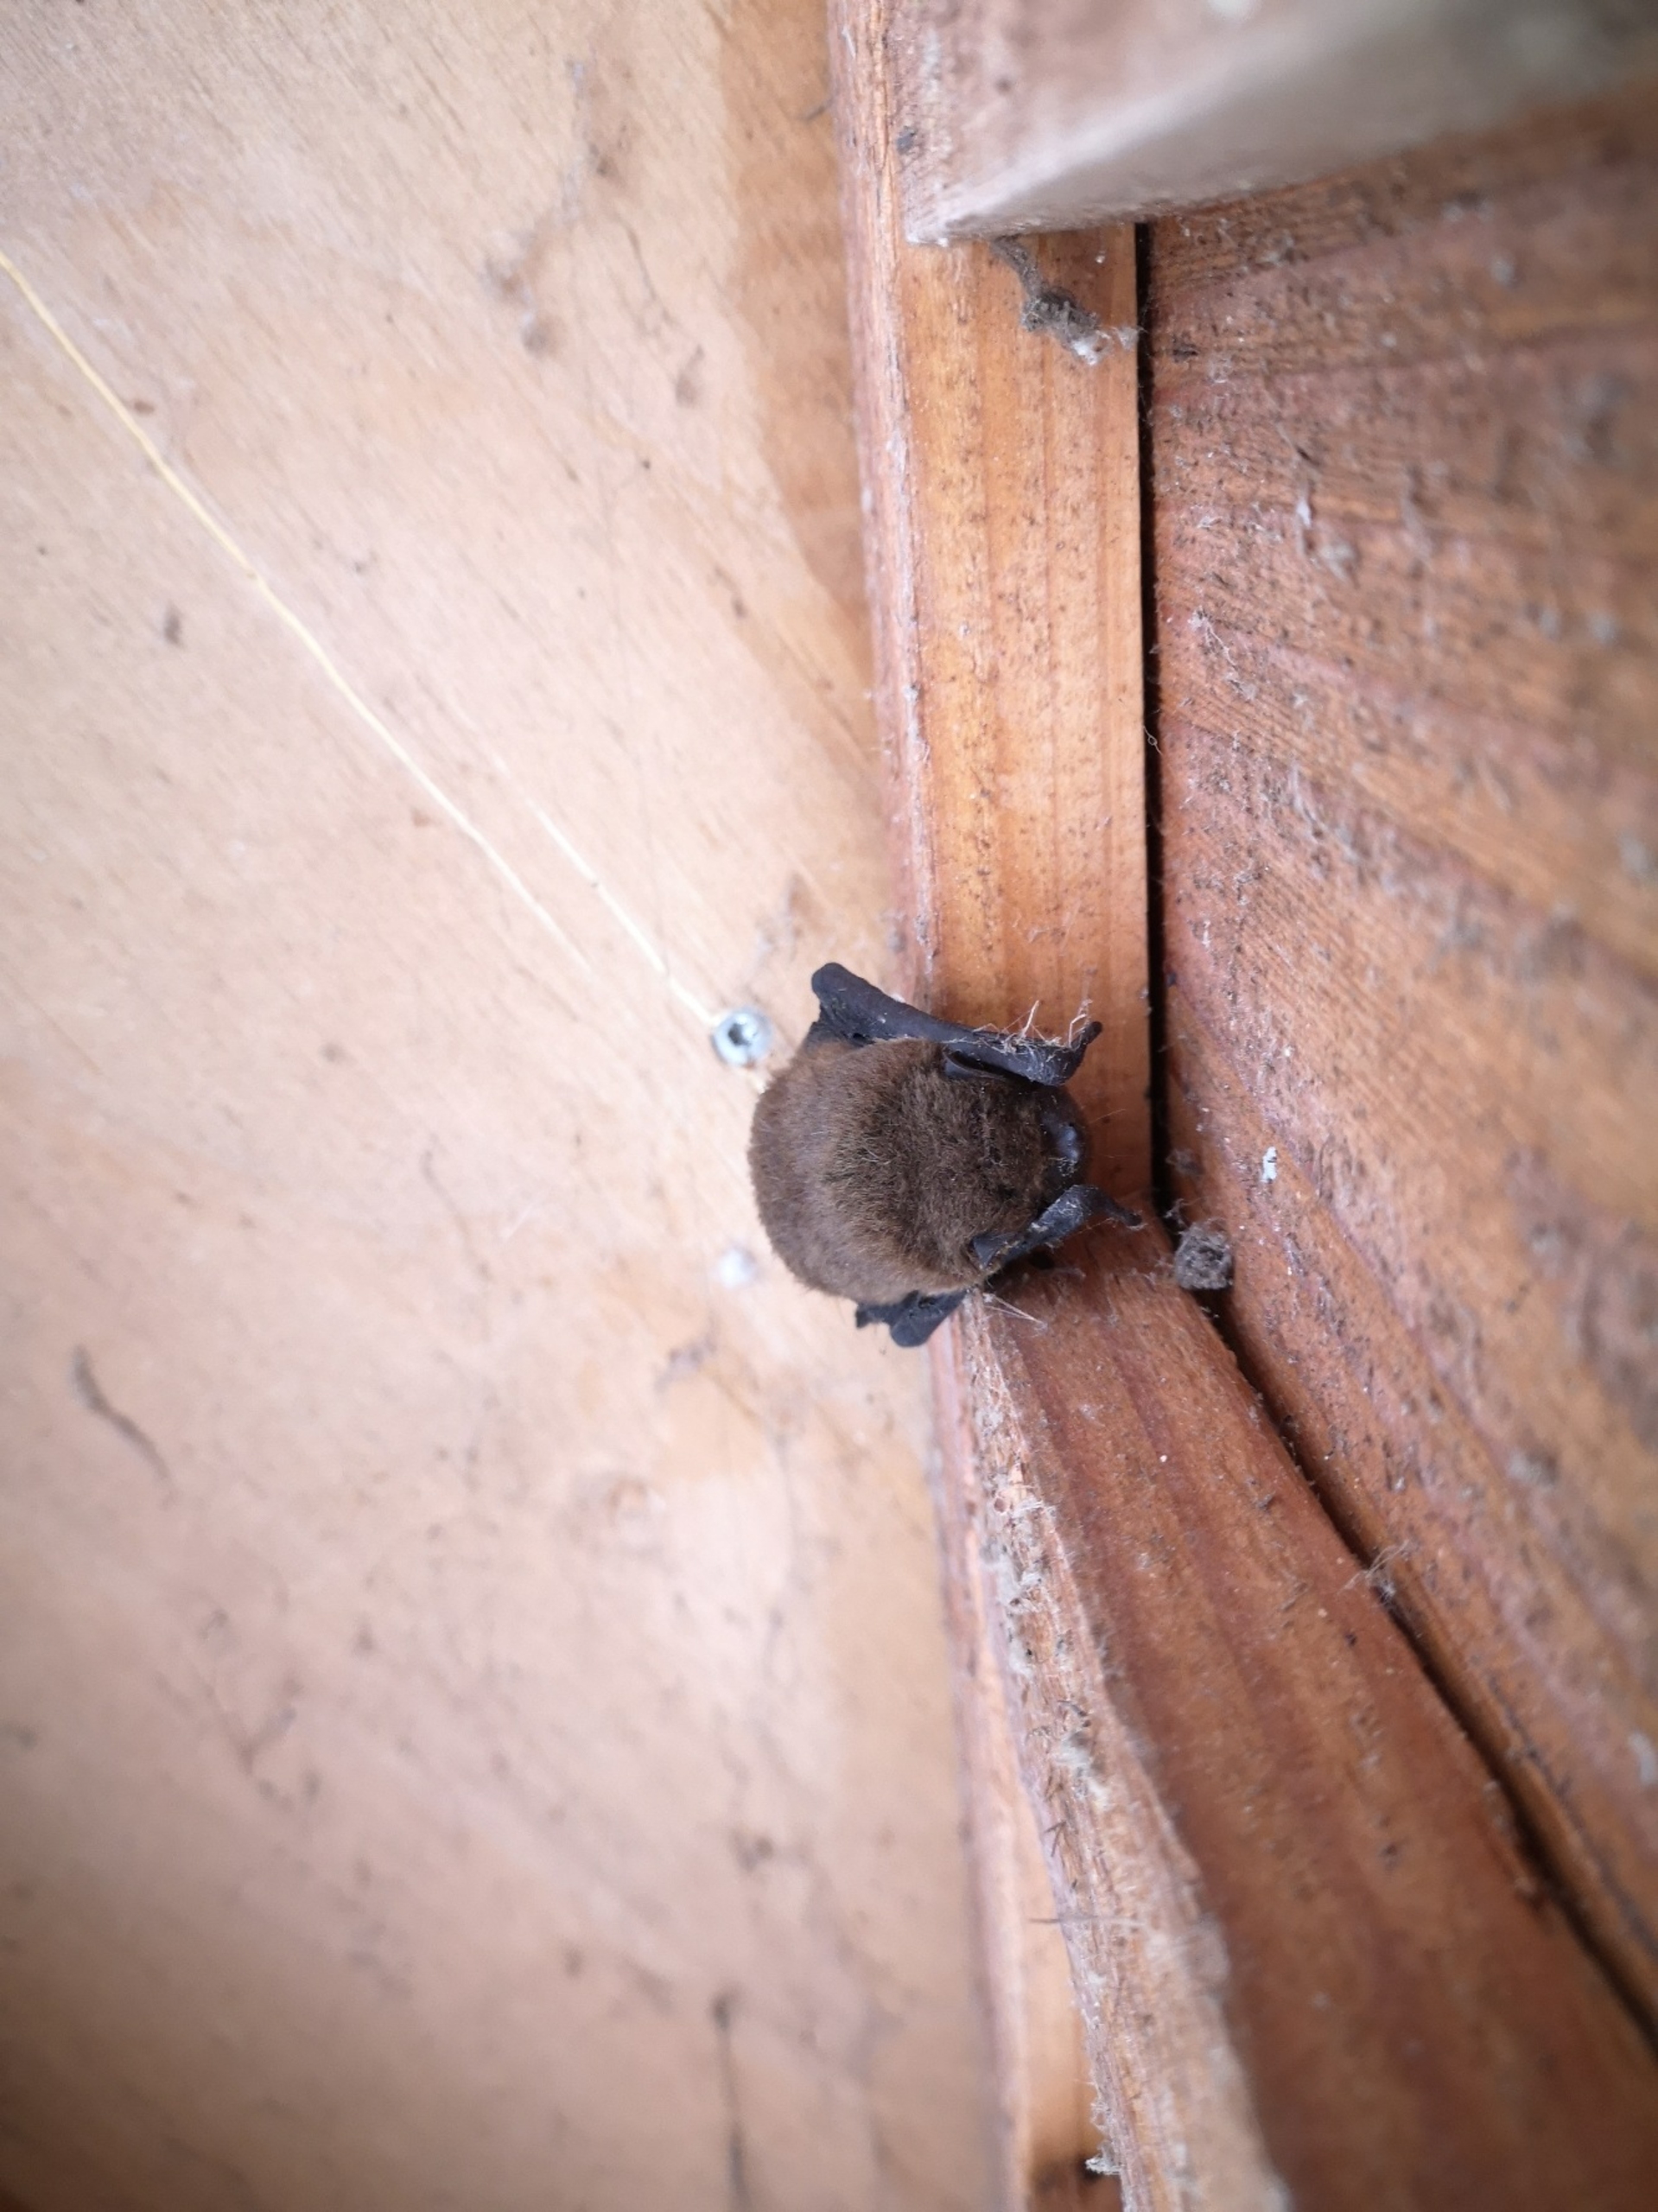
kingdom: Animalia
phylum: Chordata
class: Mammalia
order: Chiroptera
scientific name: Chiroptera
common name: Flagermus
